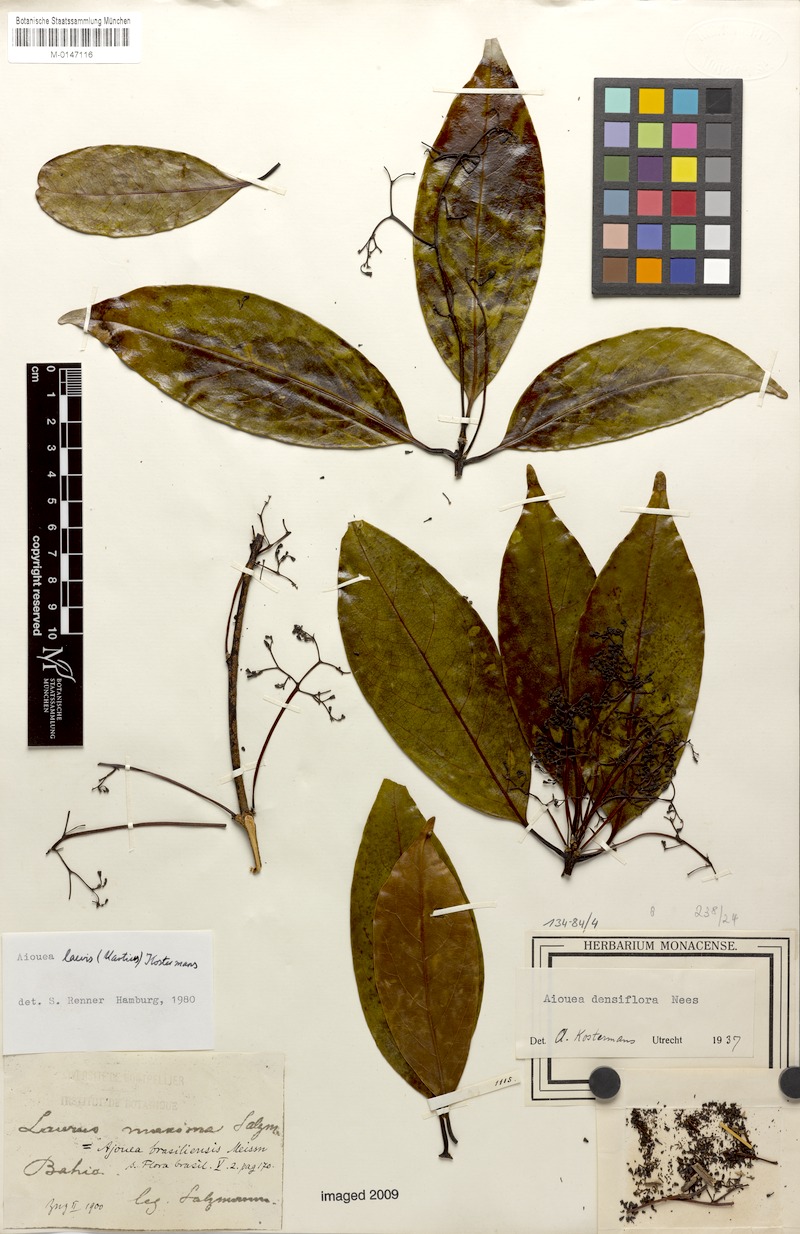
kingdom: Plantae
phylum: Tracheophyta
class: Magnoliopsida
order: Laurales
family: Lauraceae
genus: Aiouea
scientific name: Aiouea laevis
